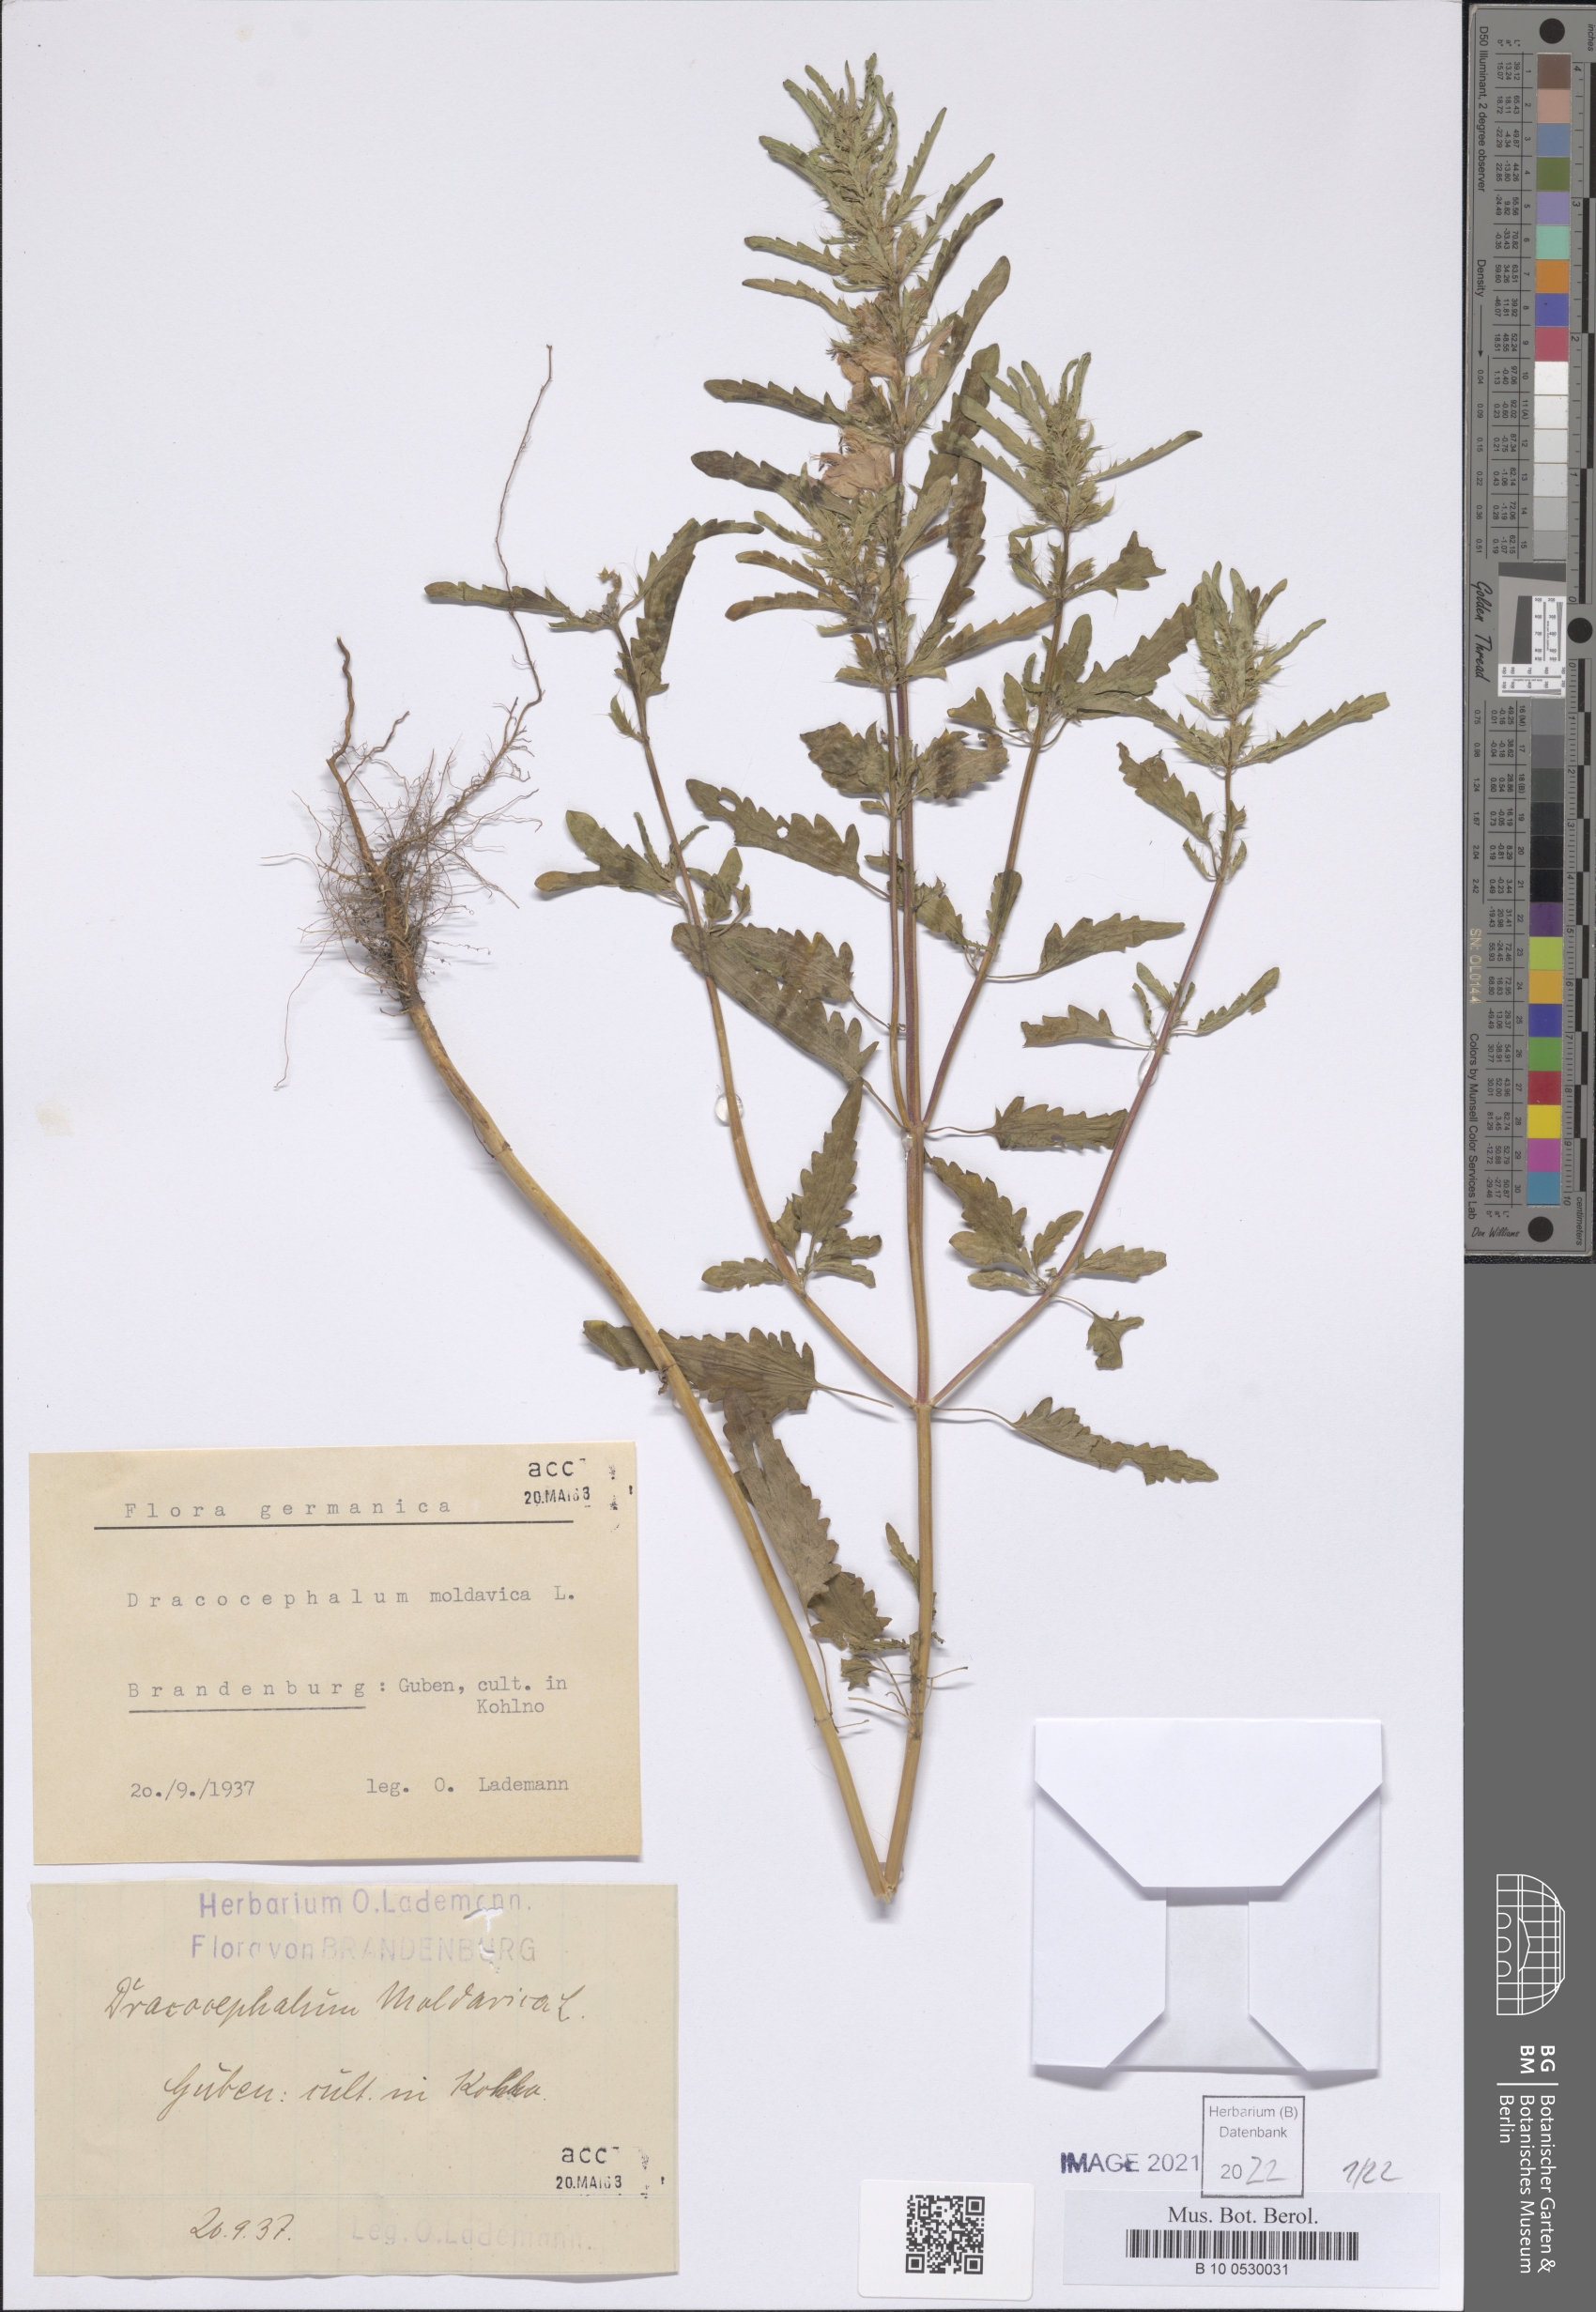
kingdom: Plantae
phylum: Tracheophyta
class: Magnoliopsida
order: Lamiales
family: Lamiaceae
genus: Dracocephalum
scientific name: Dracocephalum moldavica
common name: Moldavian dragonhead
